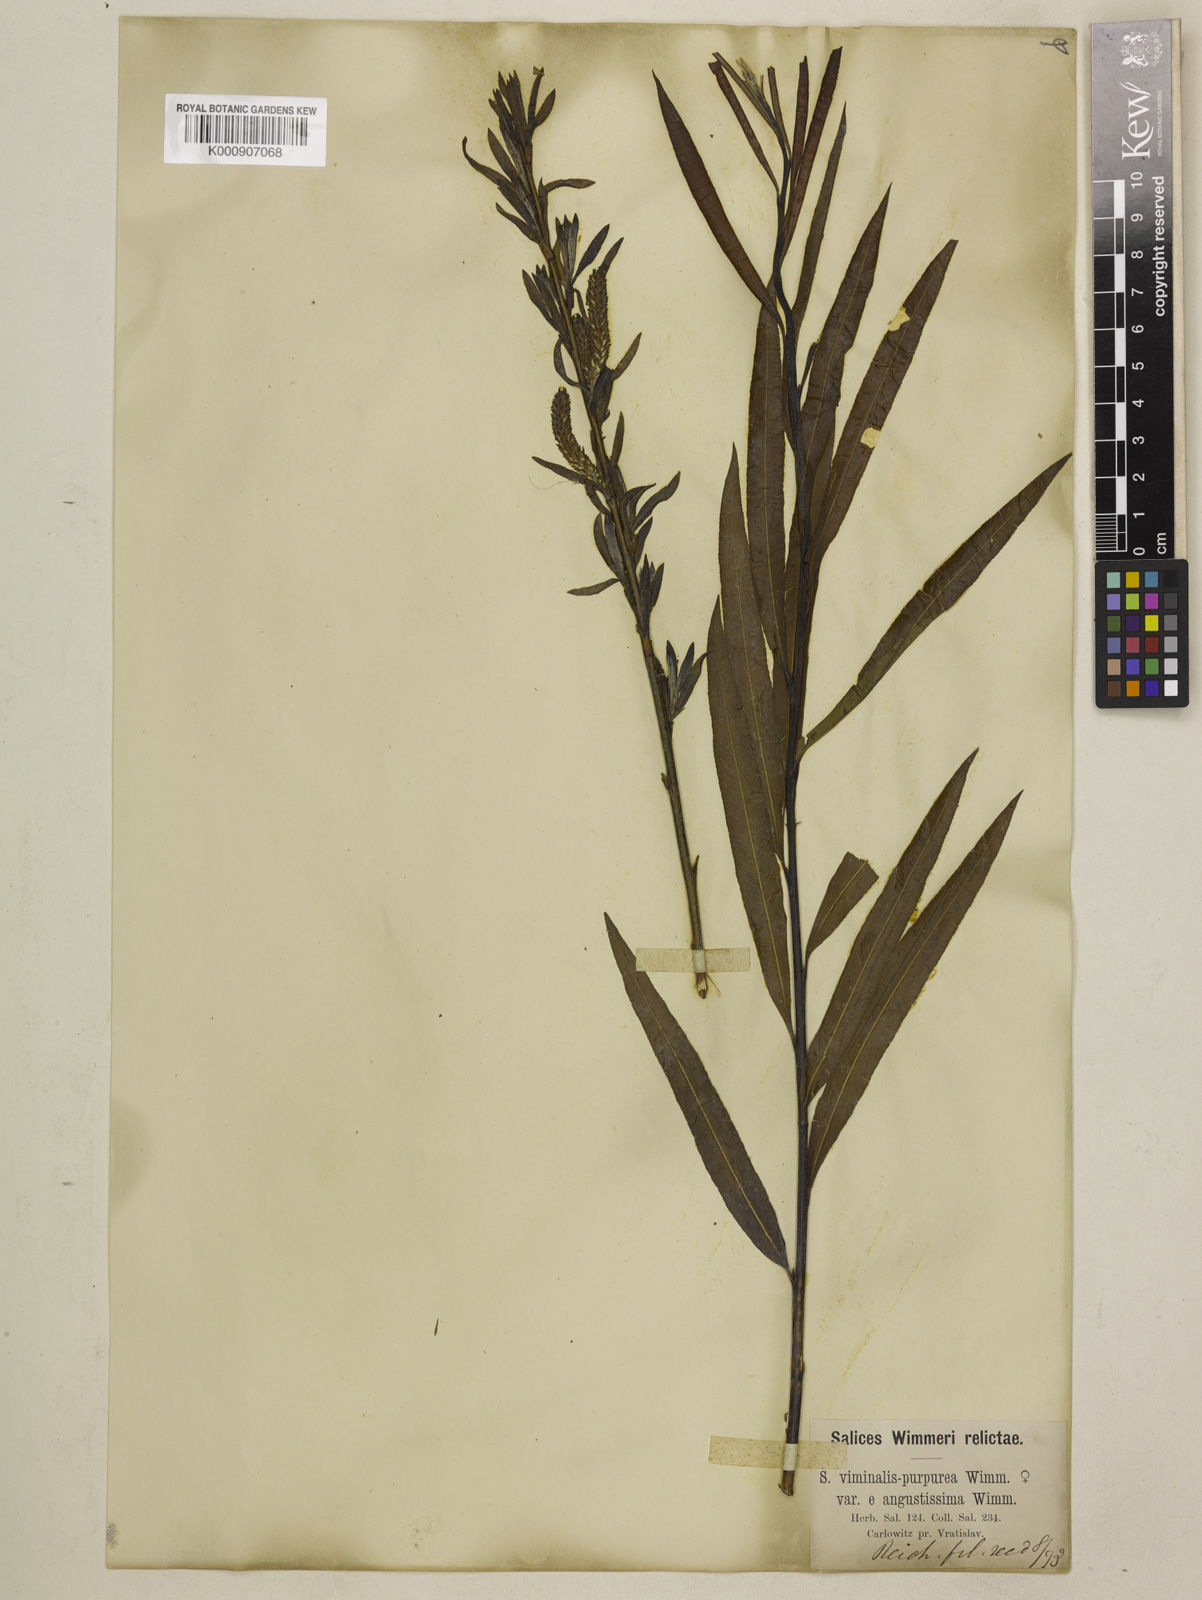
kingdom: Plantae
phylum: Tracheophyta
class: Magnoliopsida
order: Malpighiales
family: Salicaceae
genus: Salix
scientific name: Salix purpurea
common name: Purple willow
